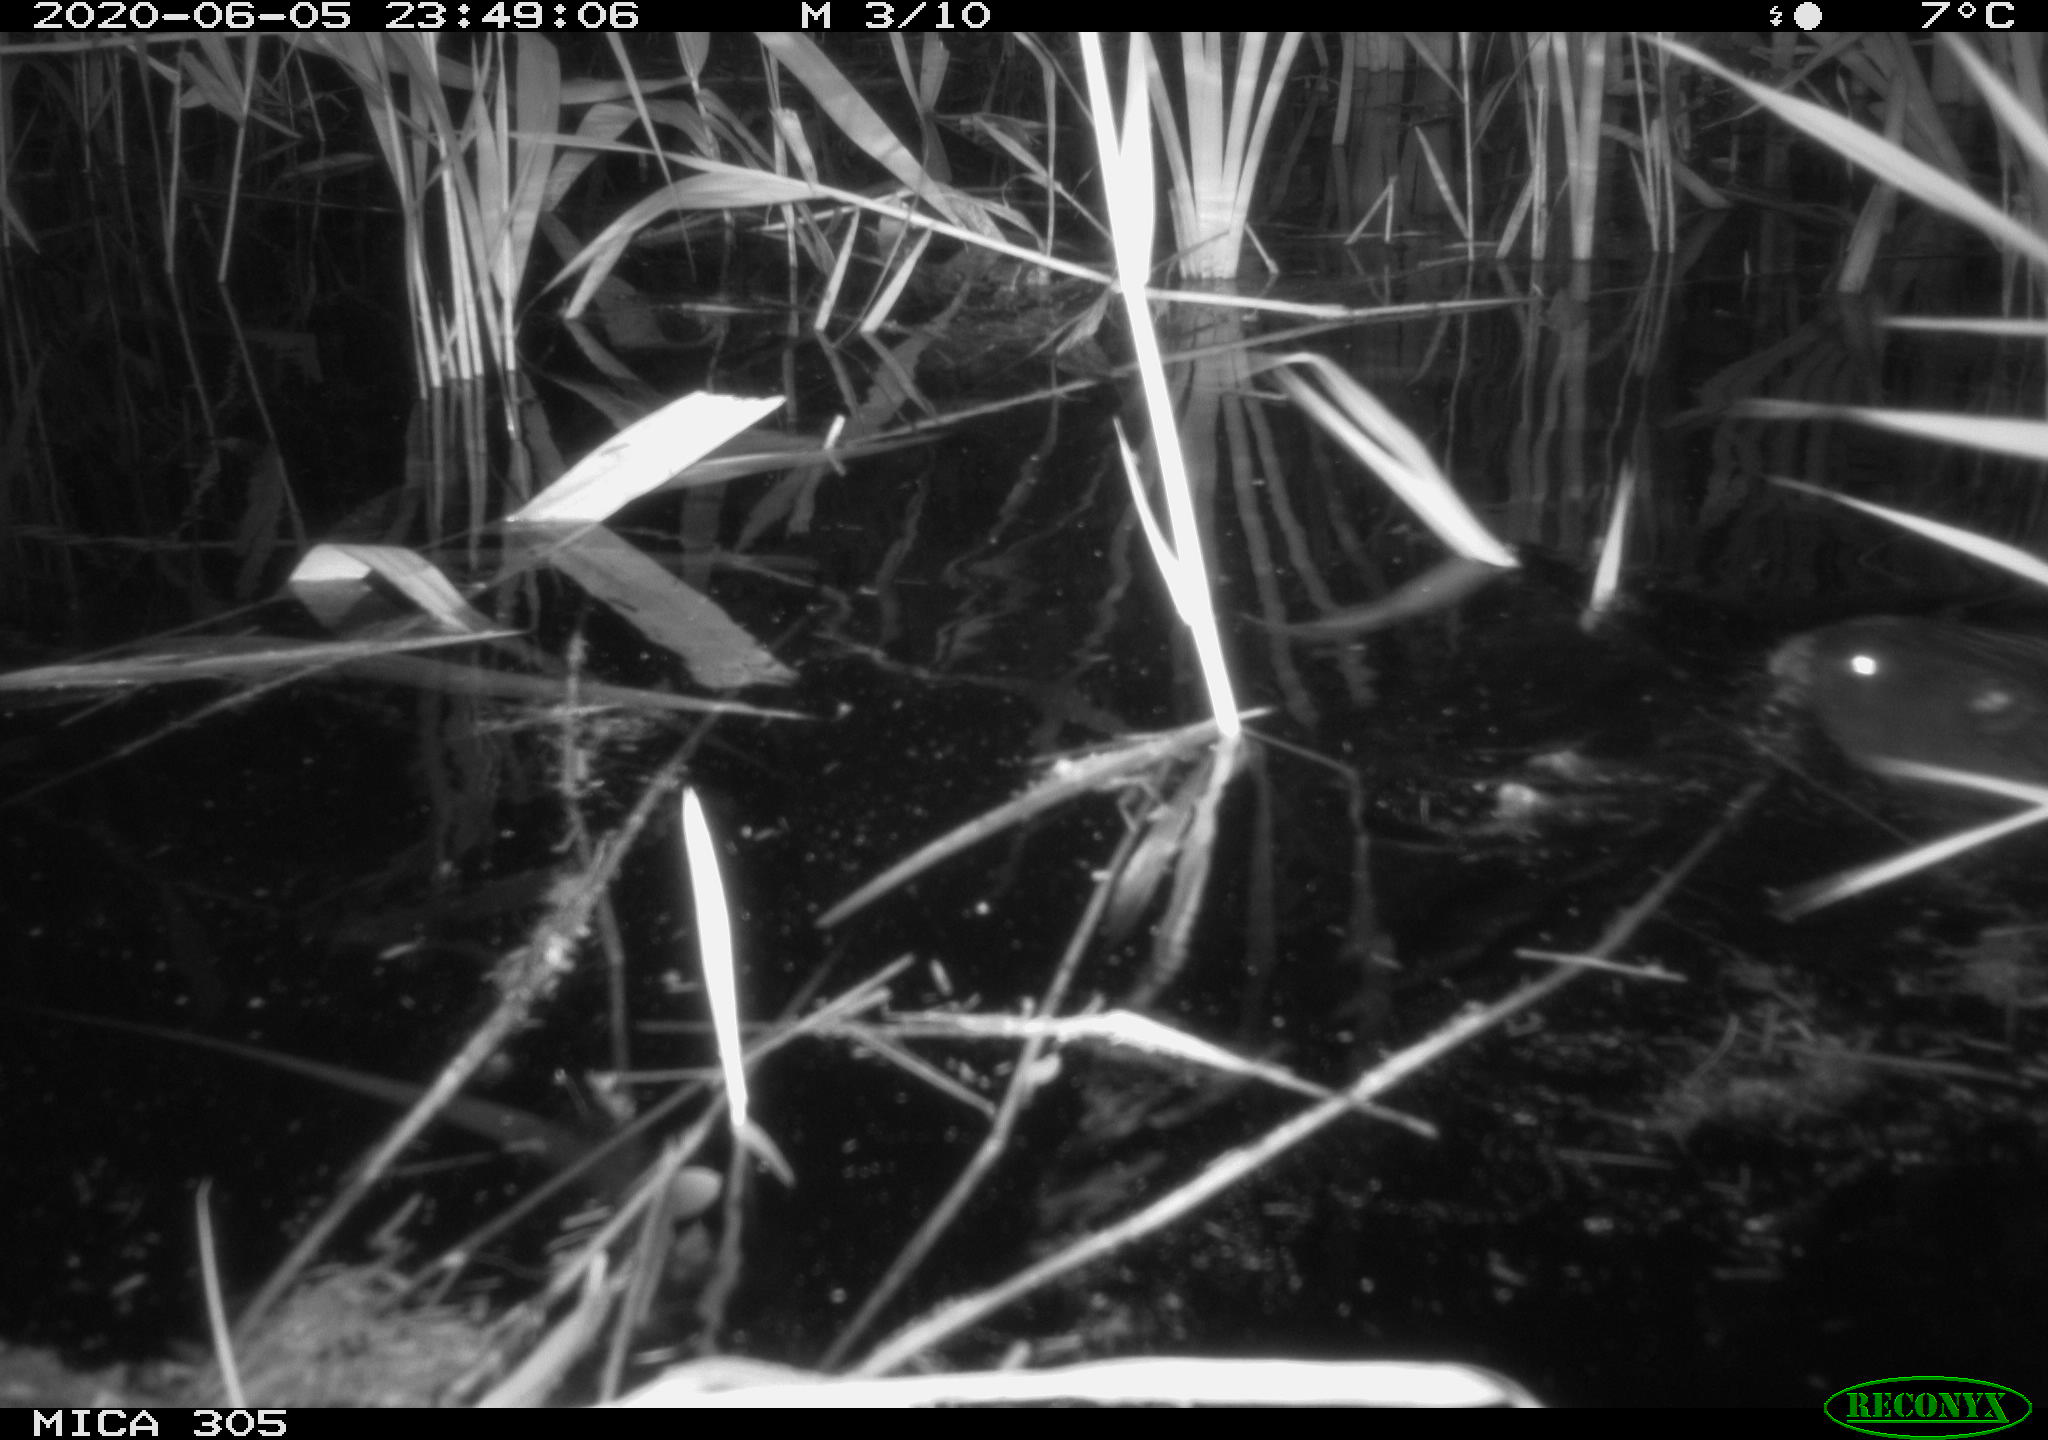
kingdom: Animalia
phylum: Chordata
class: Mammalia
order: Rodentia
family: Myocastoridae
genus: Myocastor
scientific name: Myocastor coypus
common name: Coypu
